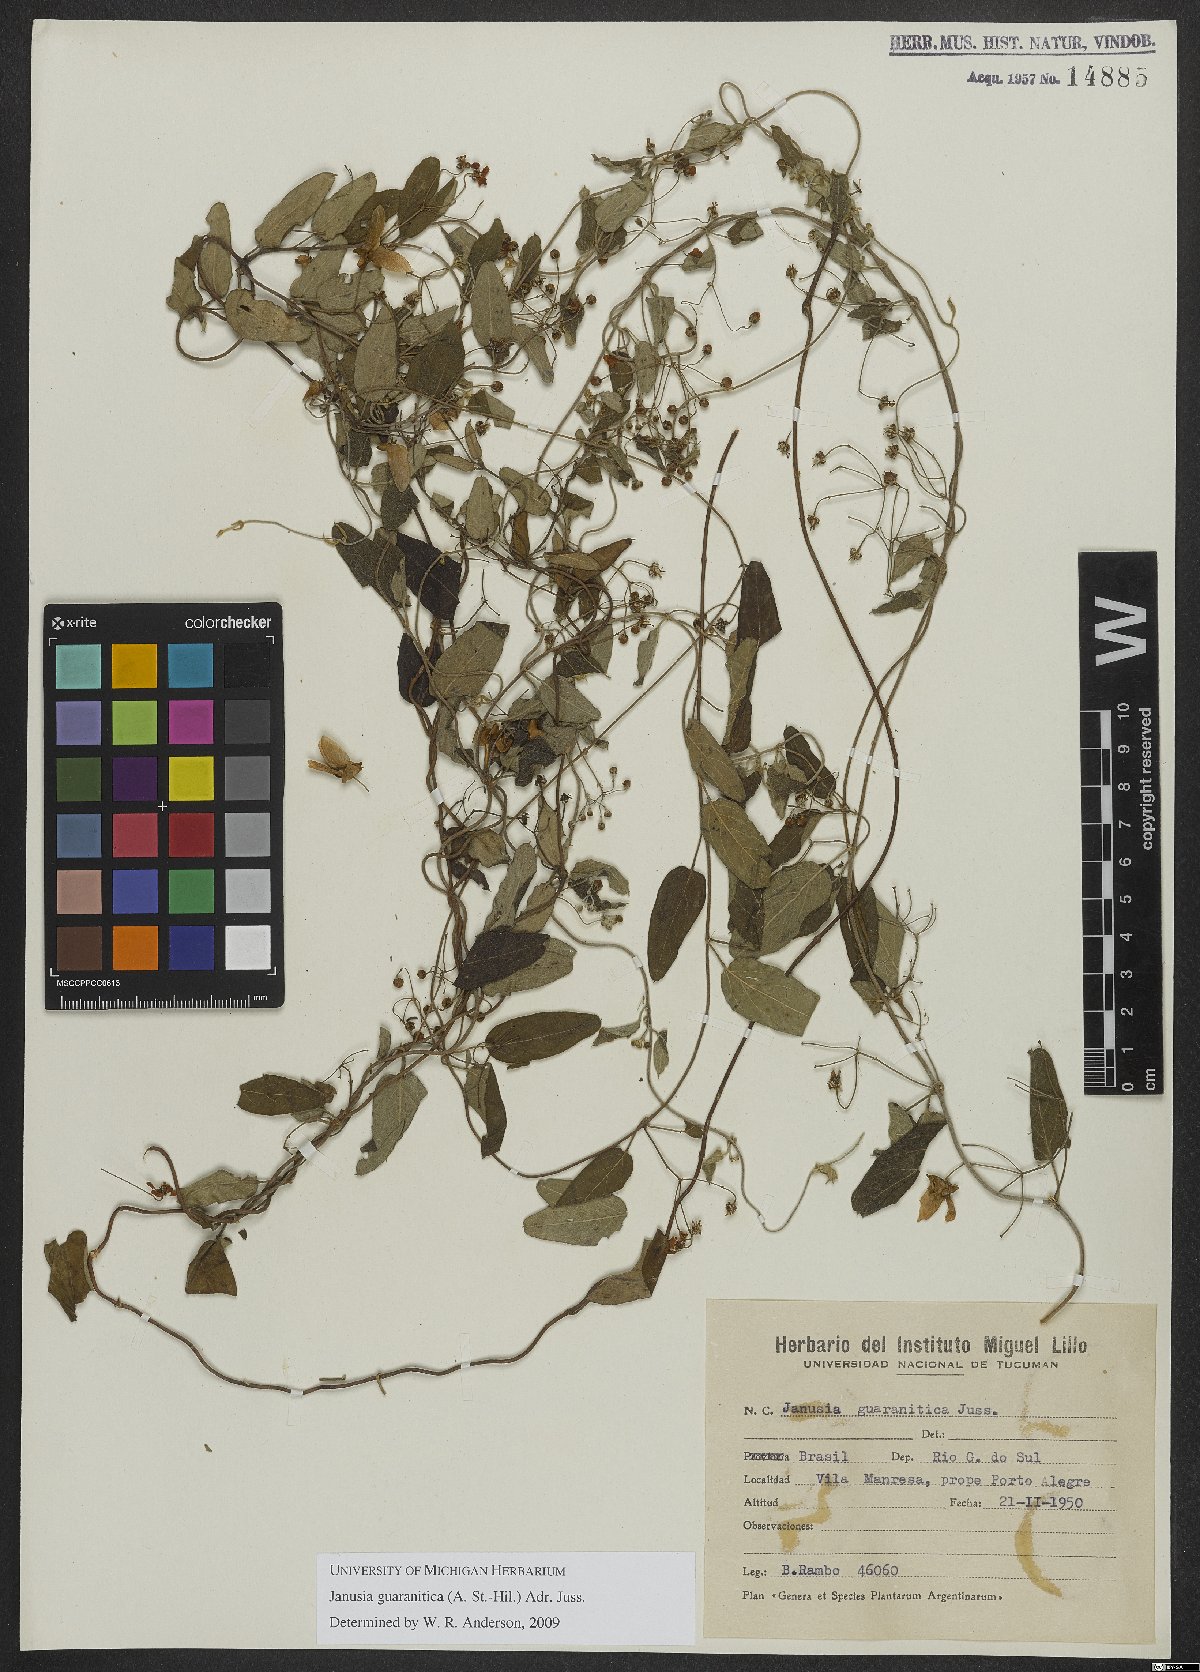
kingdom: Plantae
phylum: Tracheophyta
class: Magnoliopsida
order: Malpighiales
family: Malpighiaceae
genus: Janusia
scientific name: Janusia guaranitica
